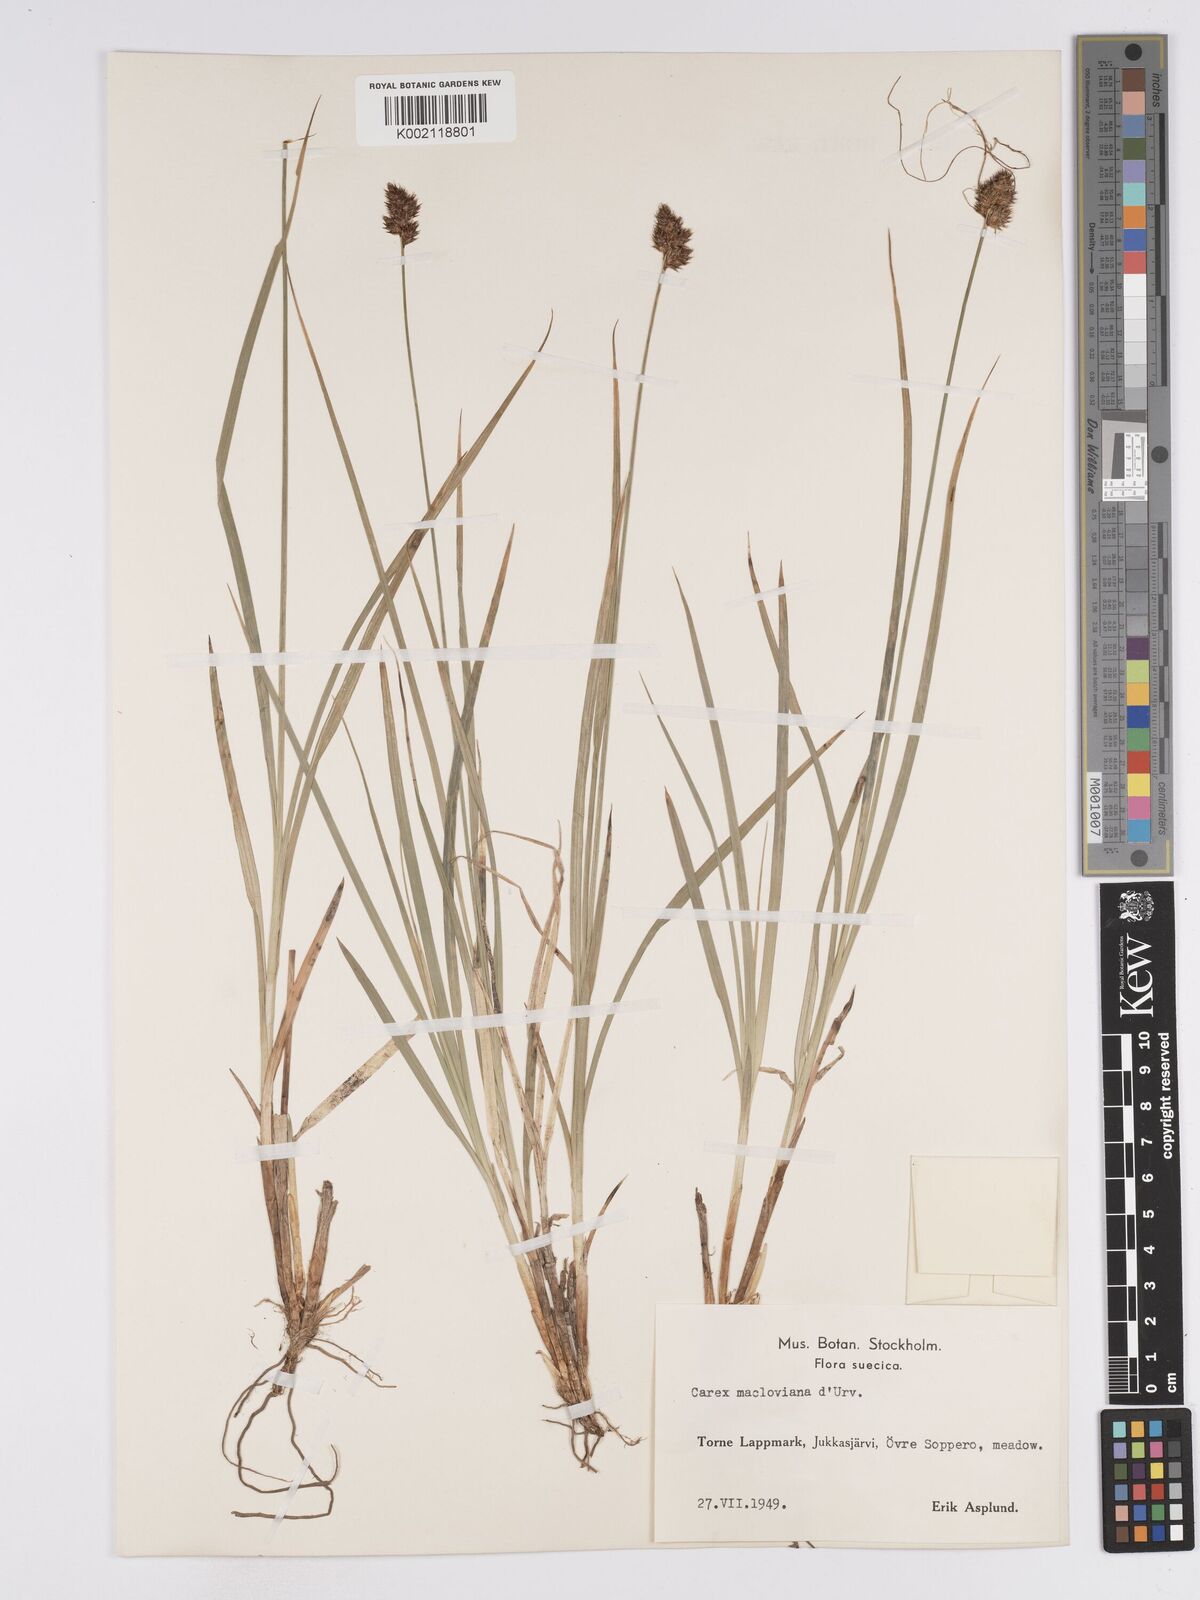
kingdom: Plantae
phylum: Tracheophyta
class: Liliopsida
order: Poales
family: Cyperaceae
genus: Carex
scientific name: Carex macloviana
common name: Falkland island sedge
